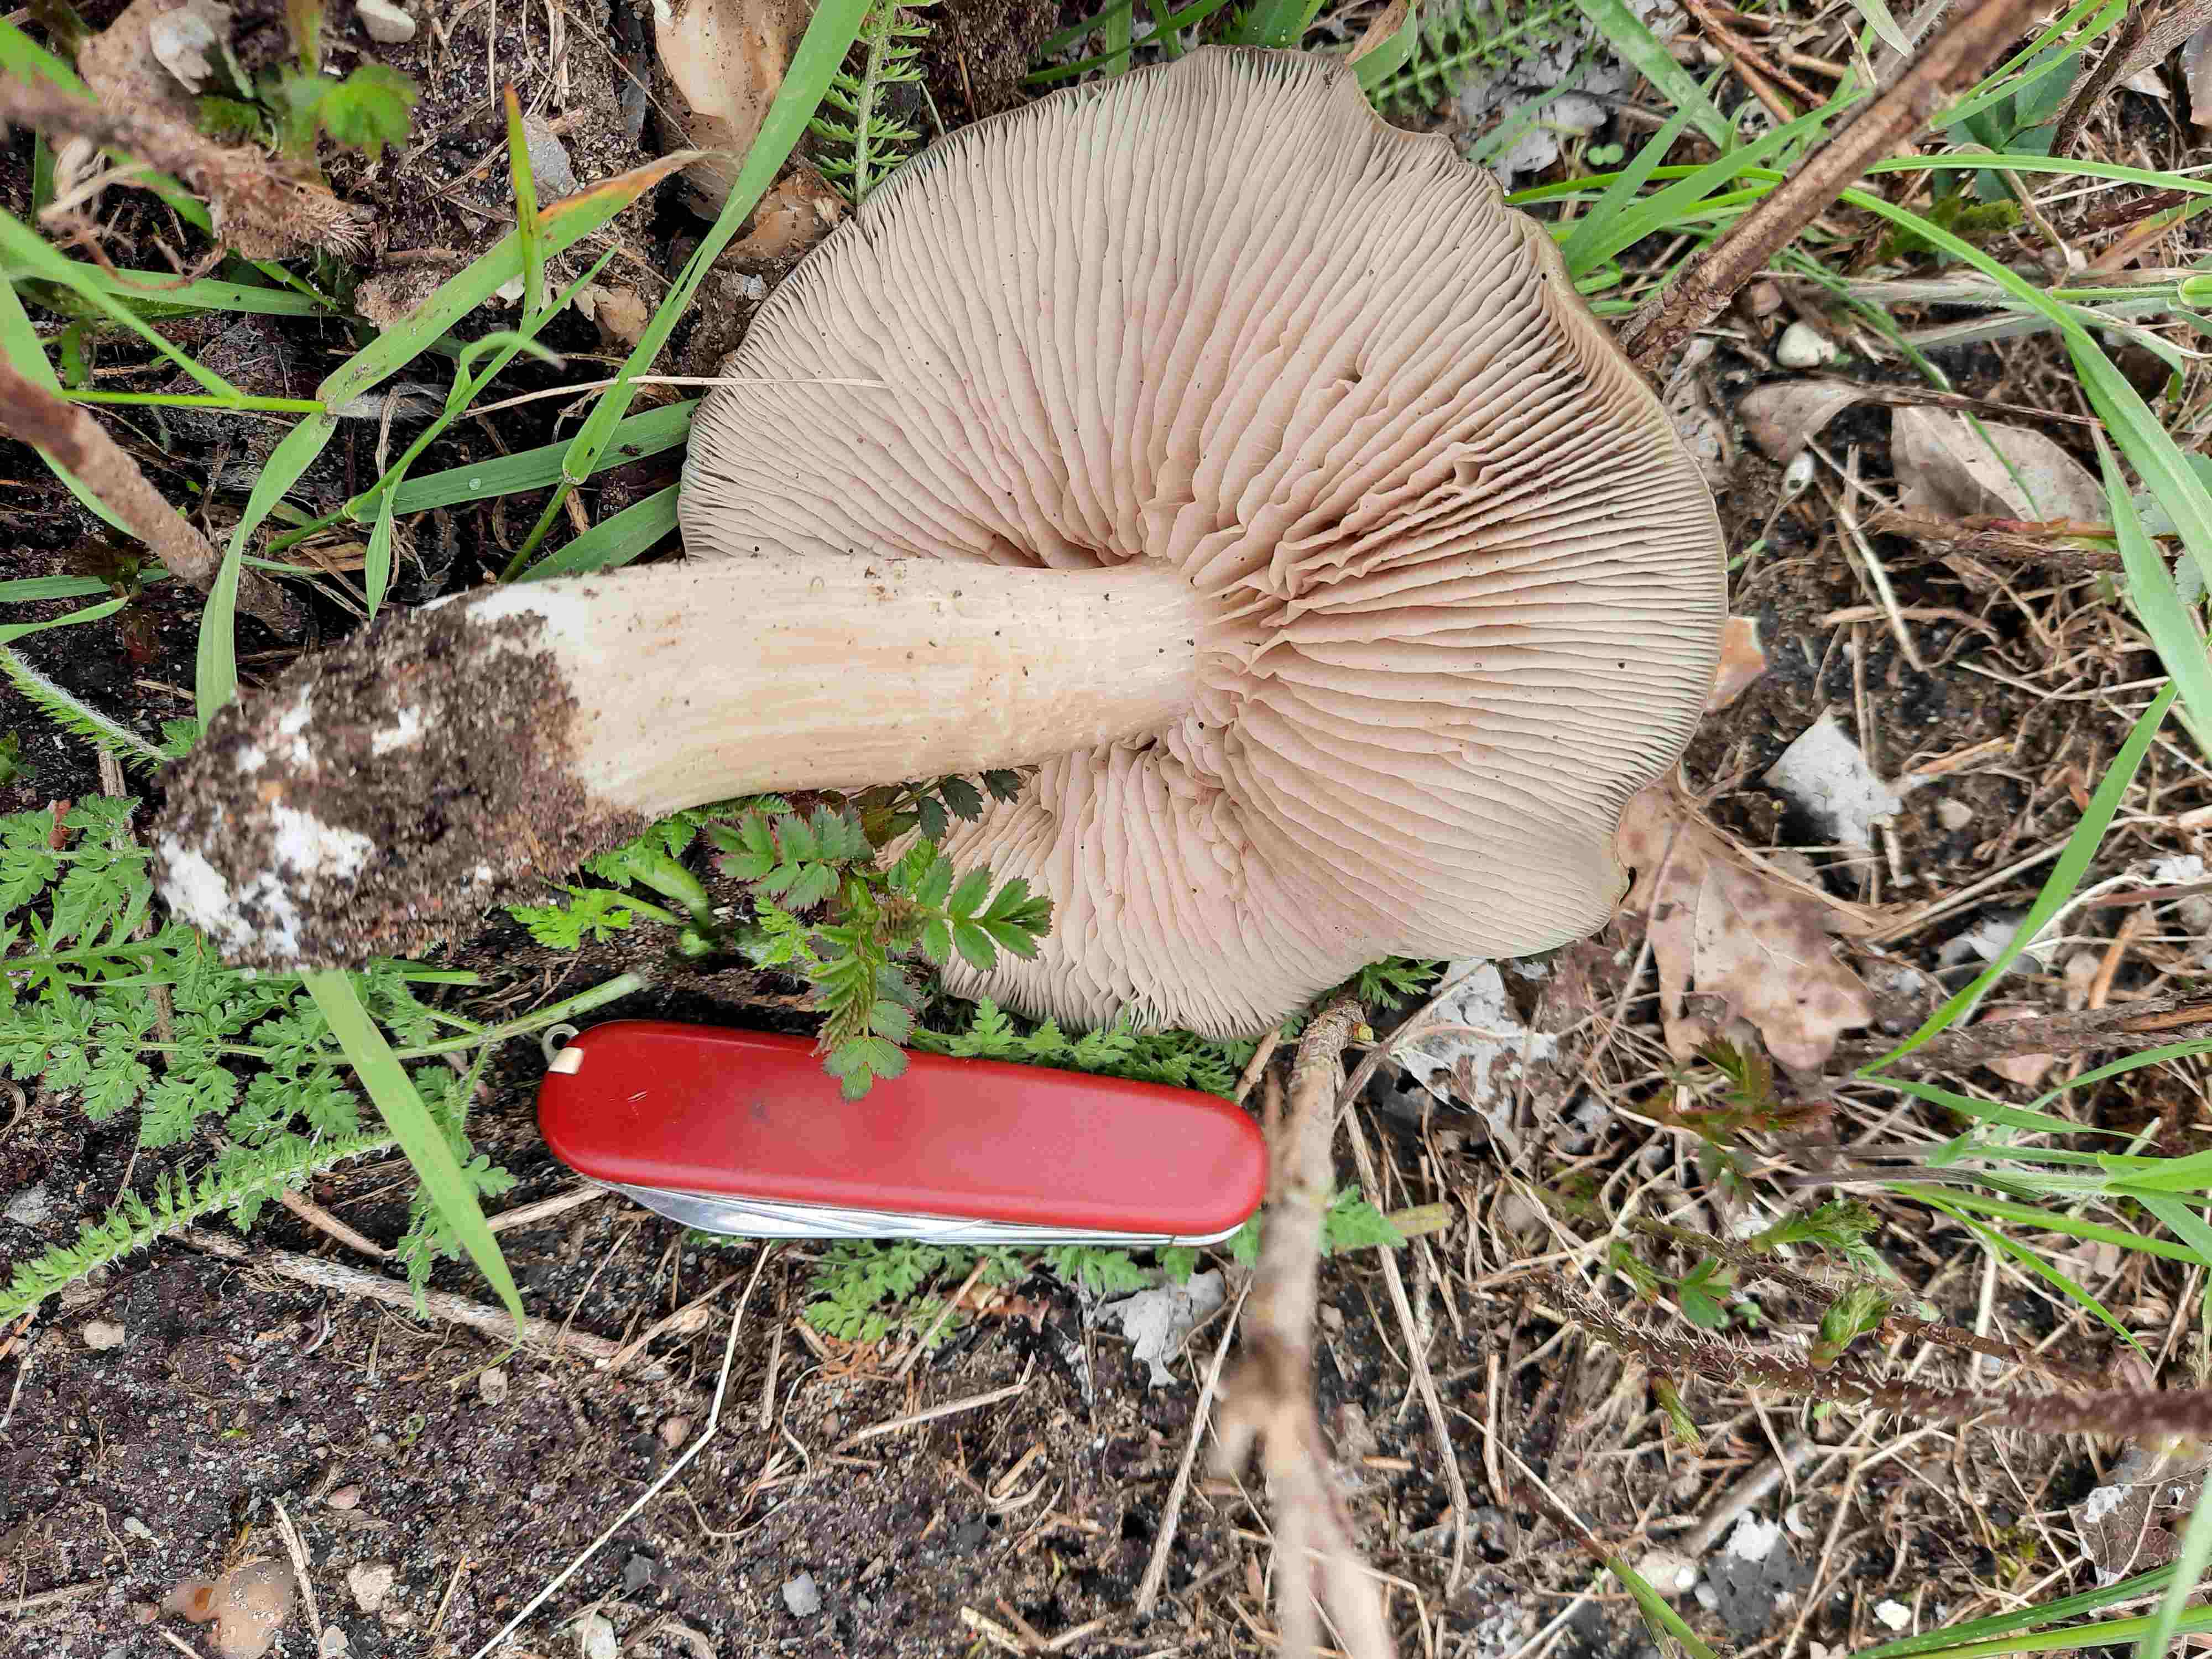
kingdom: Fungi
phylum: Basidiomycota
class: Agaricomycetes
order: Agaricales
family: Entolomataceae
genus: Entoloma
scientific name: Entoloma clypeatum
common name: flammet rødblad
